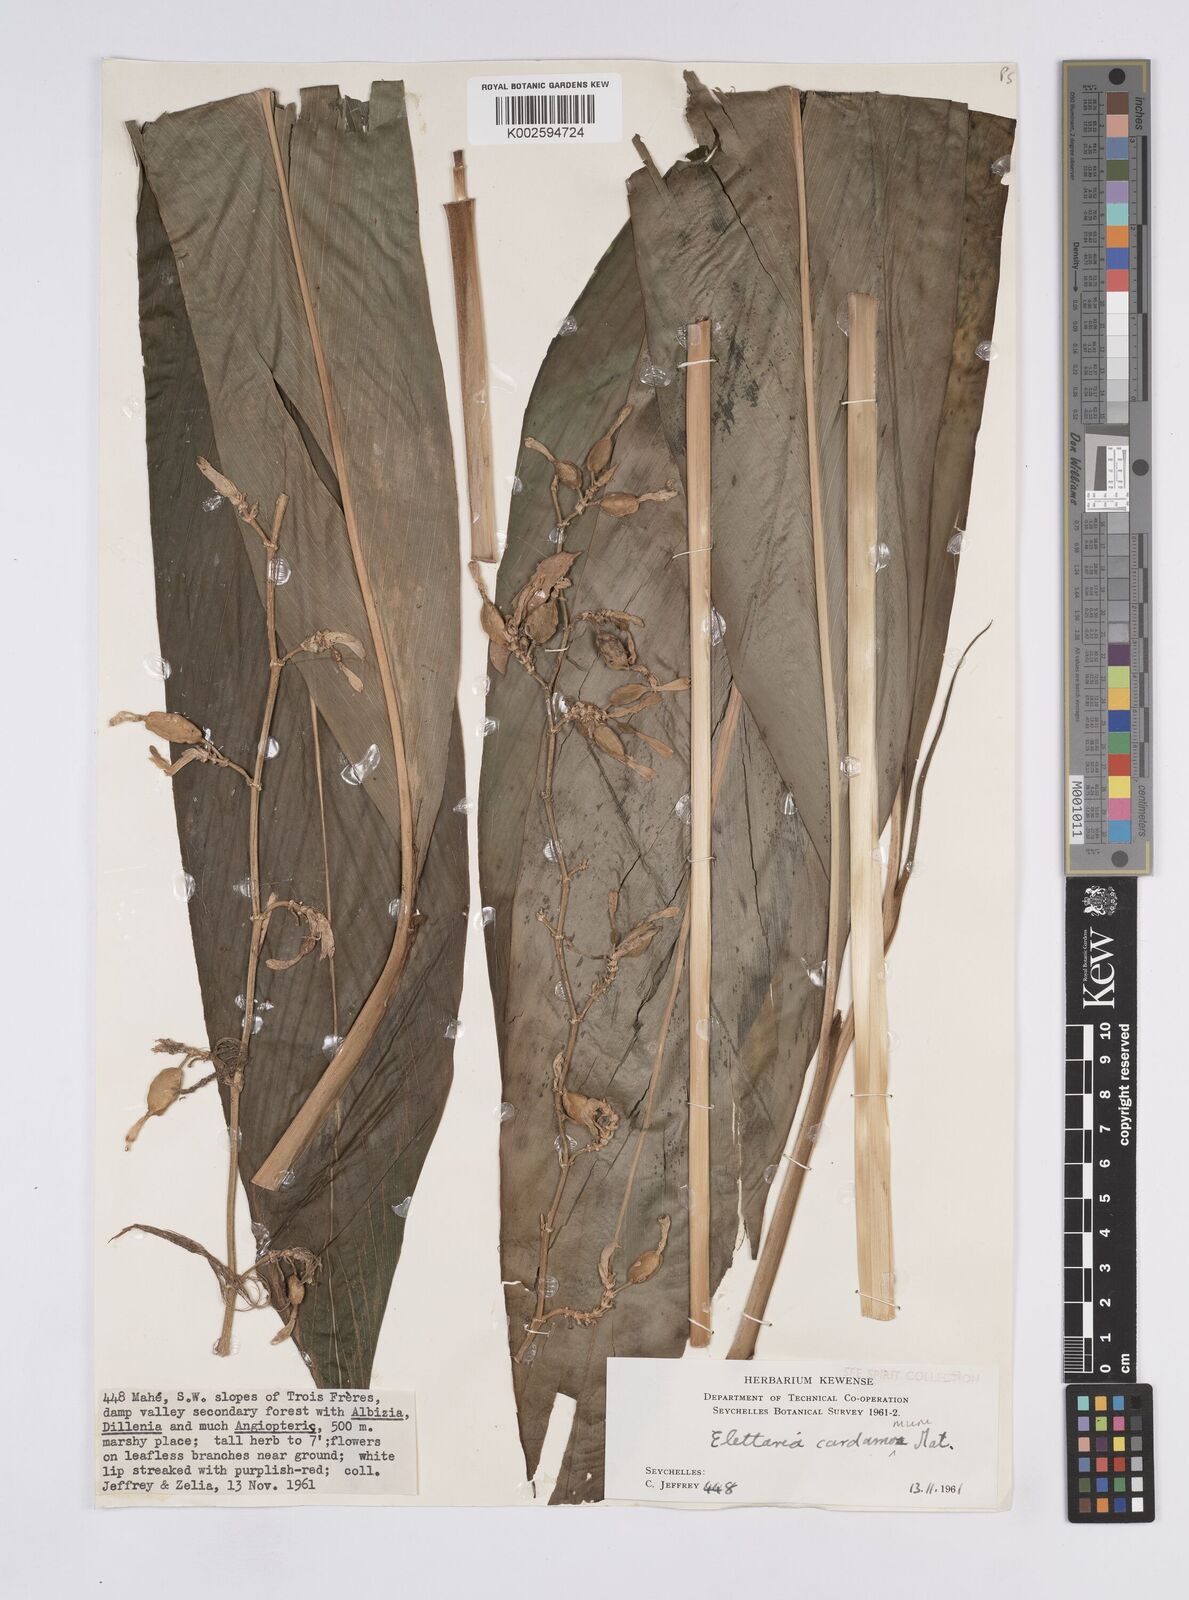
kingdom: Plantae
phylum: Tracheophyta
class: Liliopsida
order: Zingiberales
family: Zingiberaceae
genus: Elettaria
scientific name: Elettaria cardamomum
